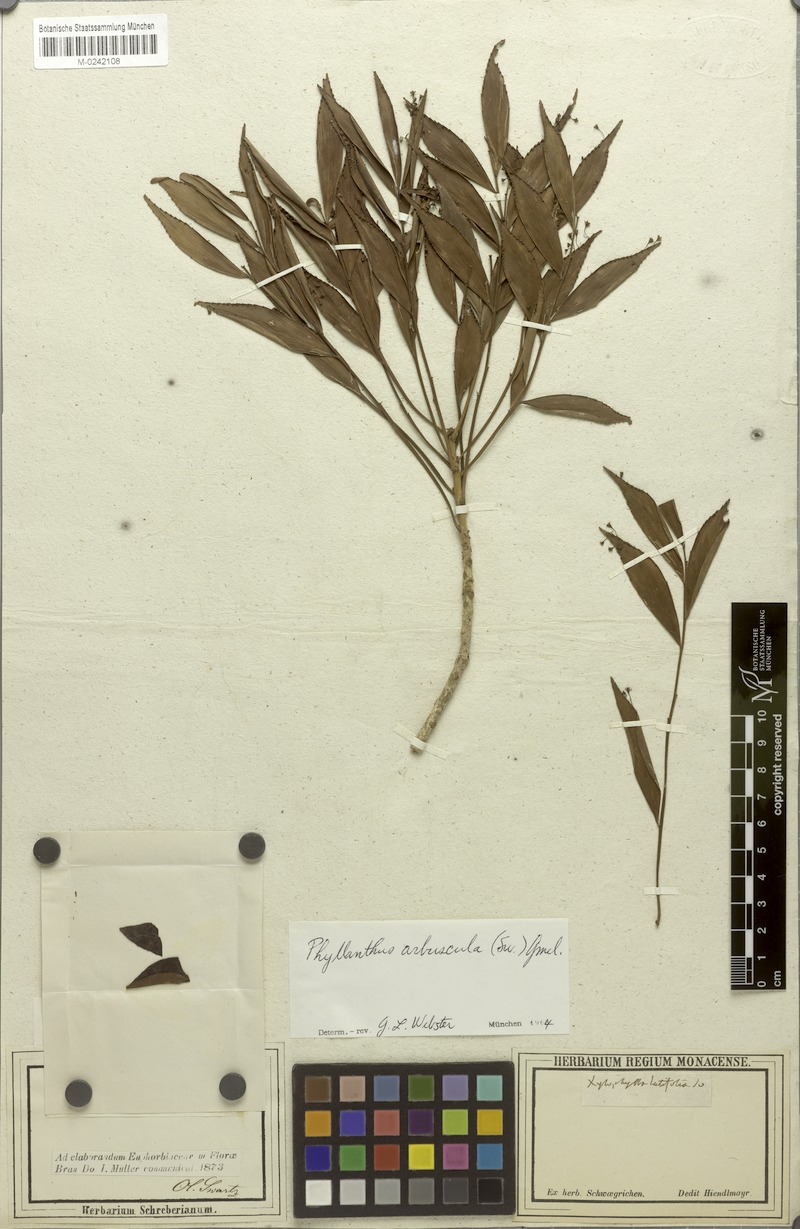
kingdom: Plantae
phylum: Tracheophyta
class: Magnoliopsida
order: Malpighiales
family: Phyllanthaceae
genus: Phyllanthus
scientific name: Phyllanthus arbuscula
